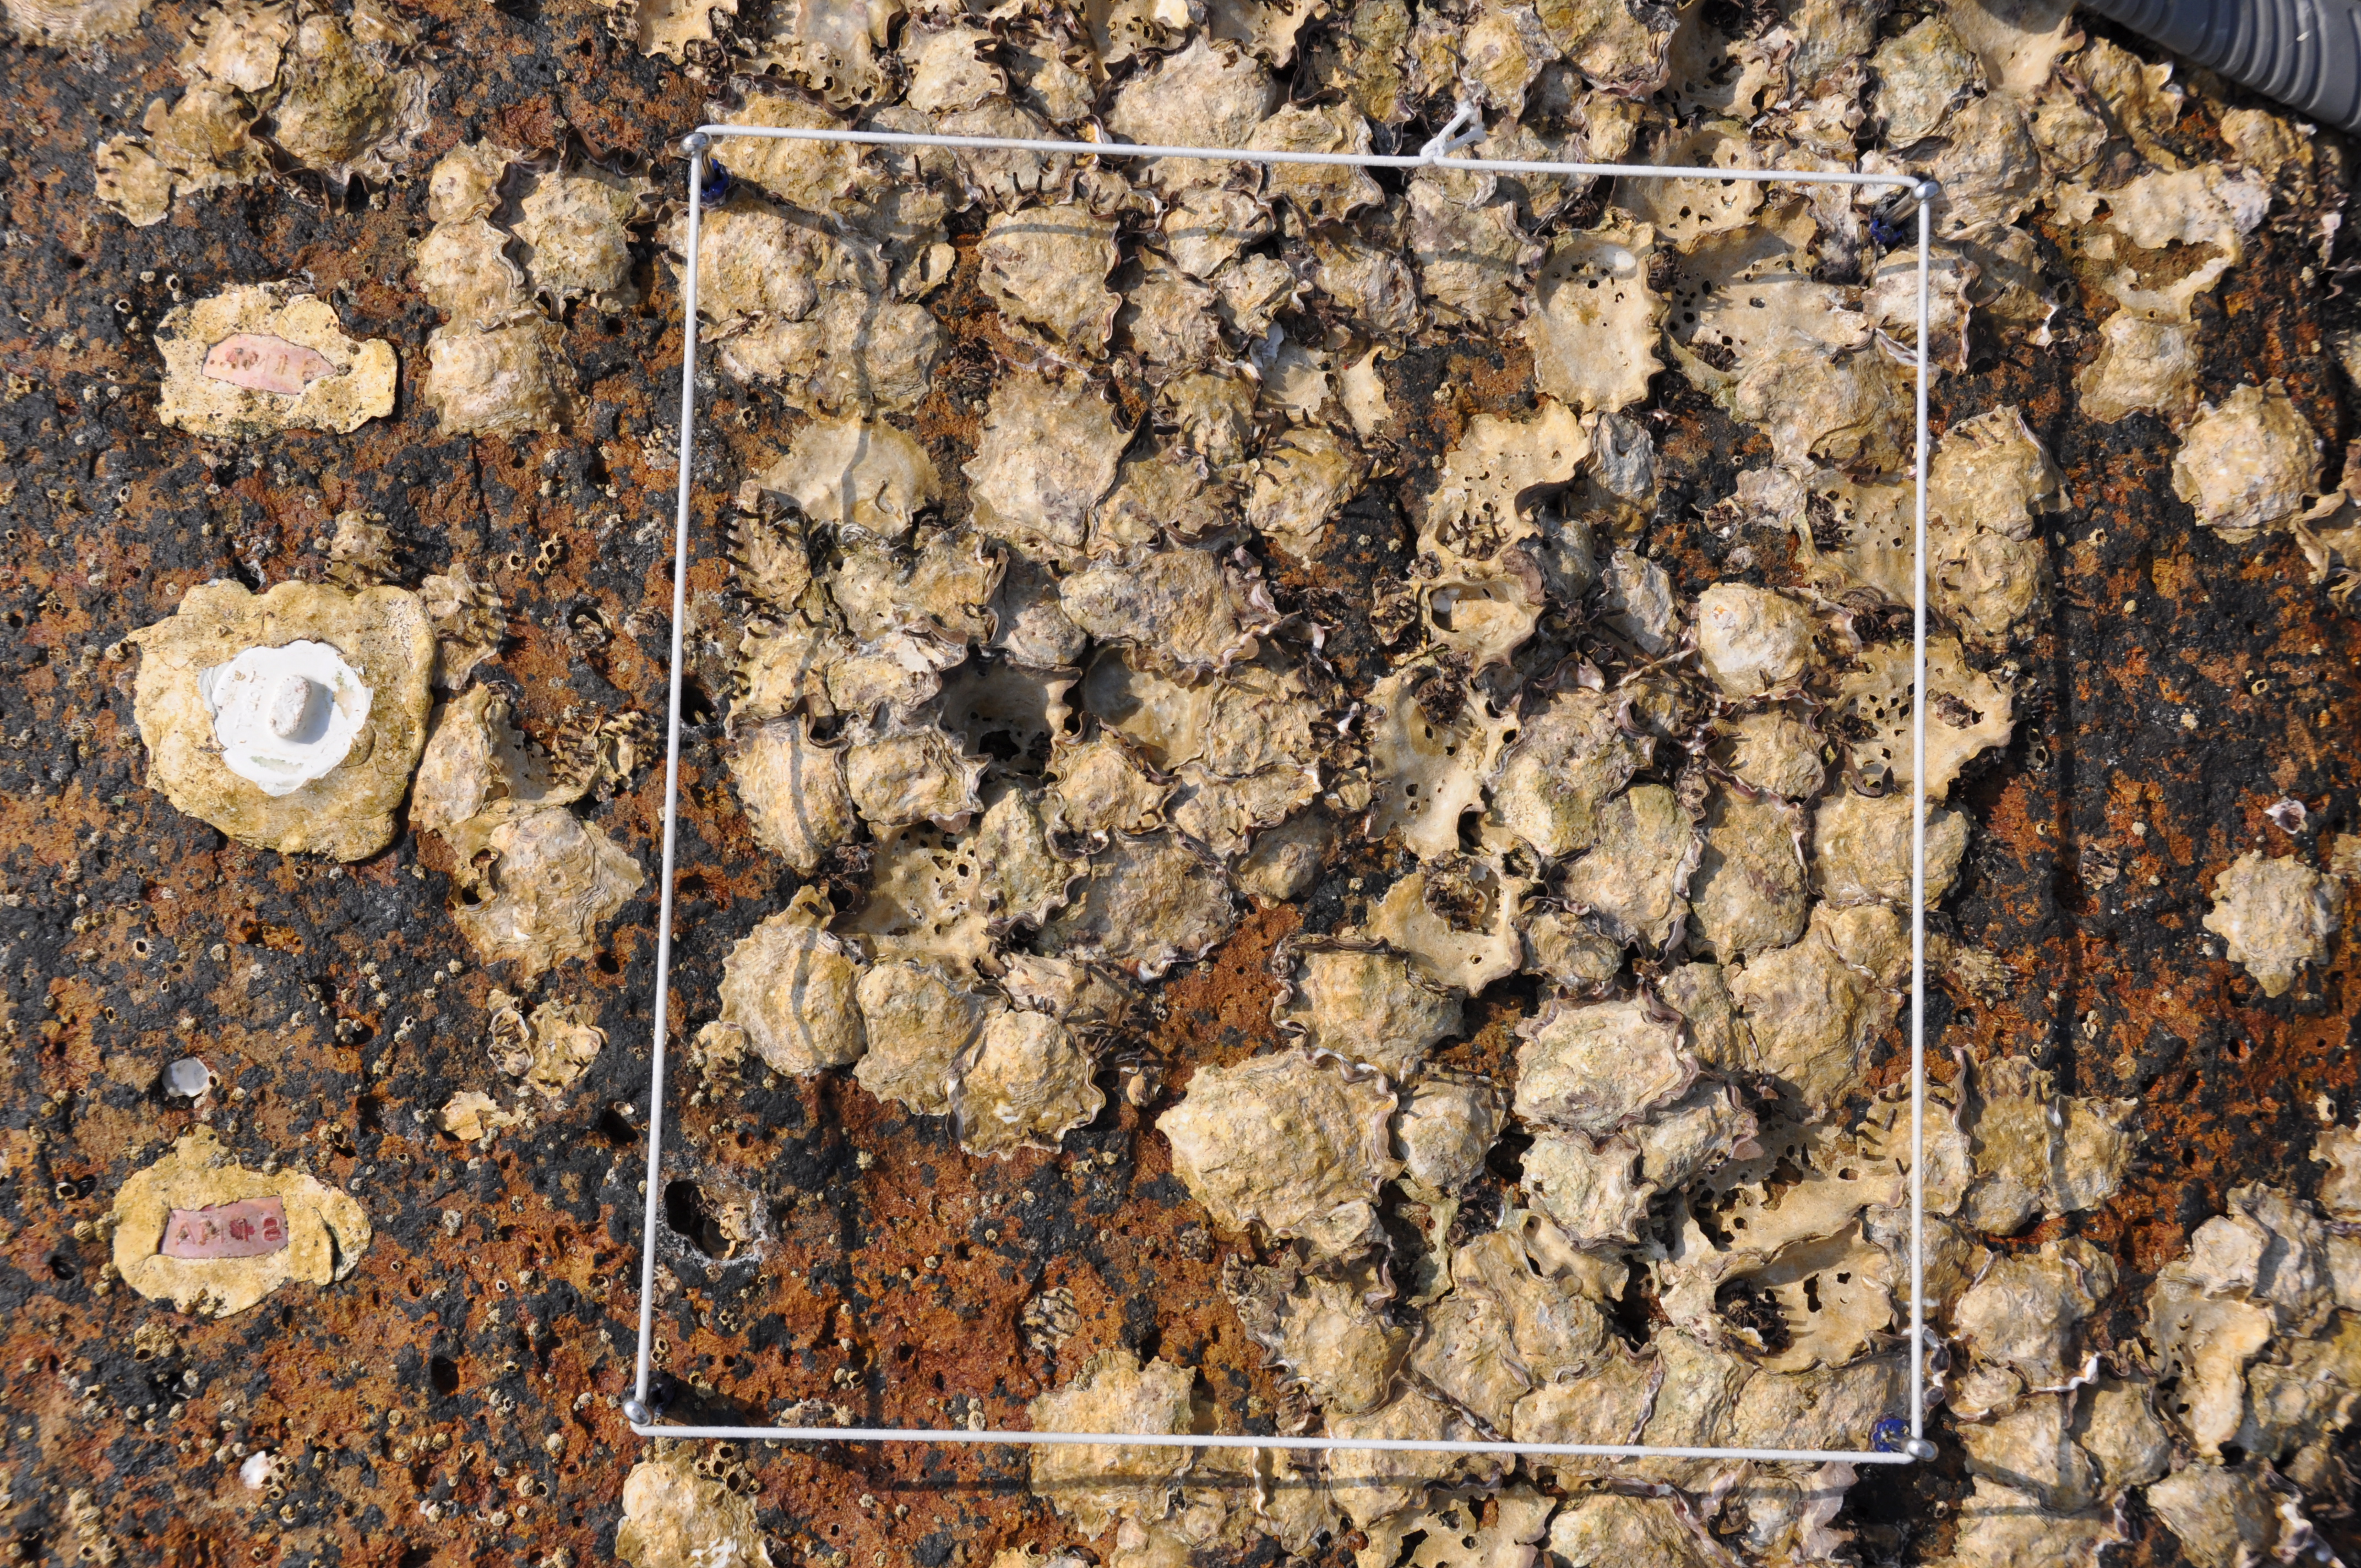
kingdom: Animalia
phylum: Arthropoda
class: Maxillopoda
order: Sessilia
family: Chthamalidae
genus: Chthamalus
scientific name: Chthamalus challengeri
